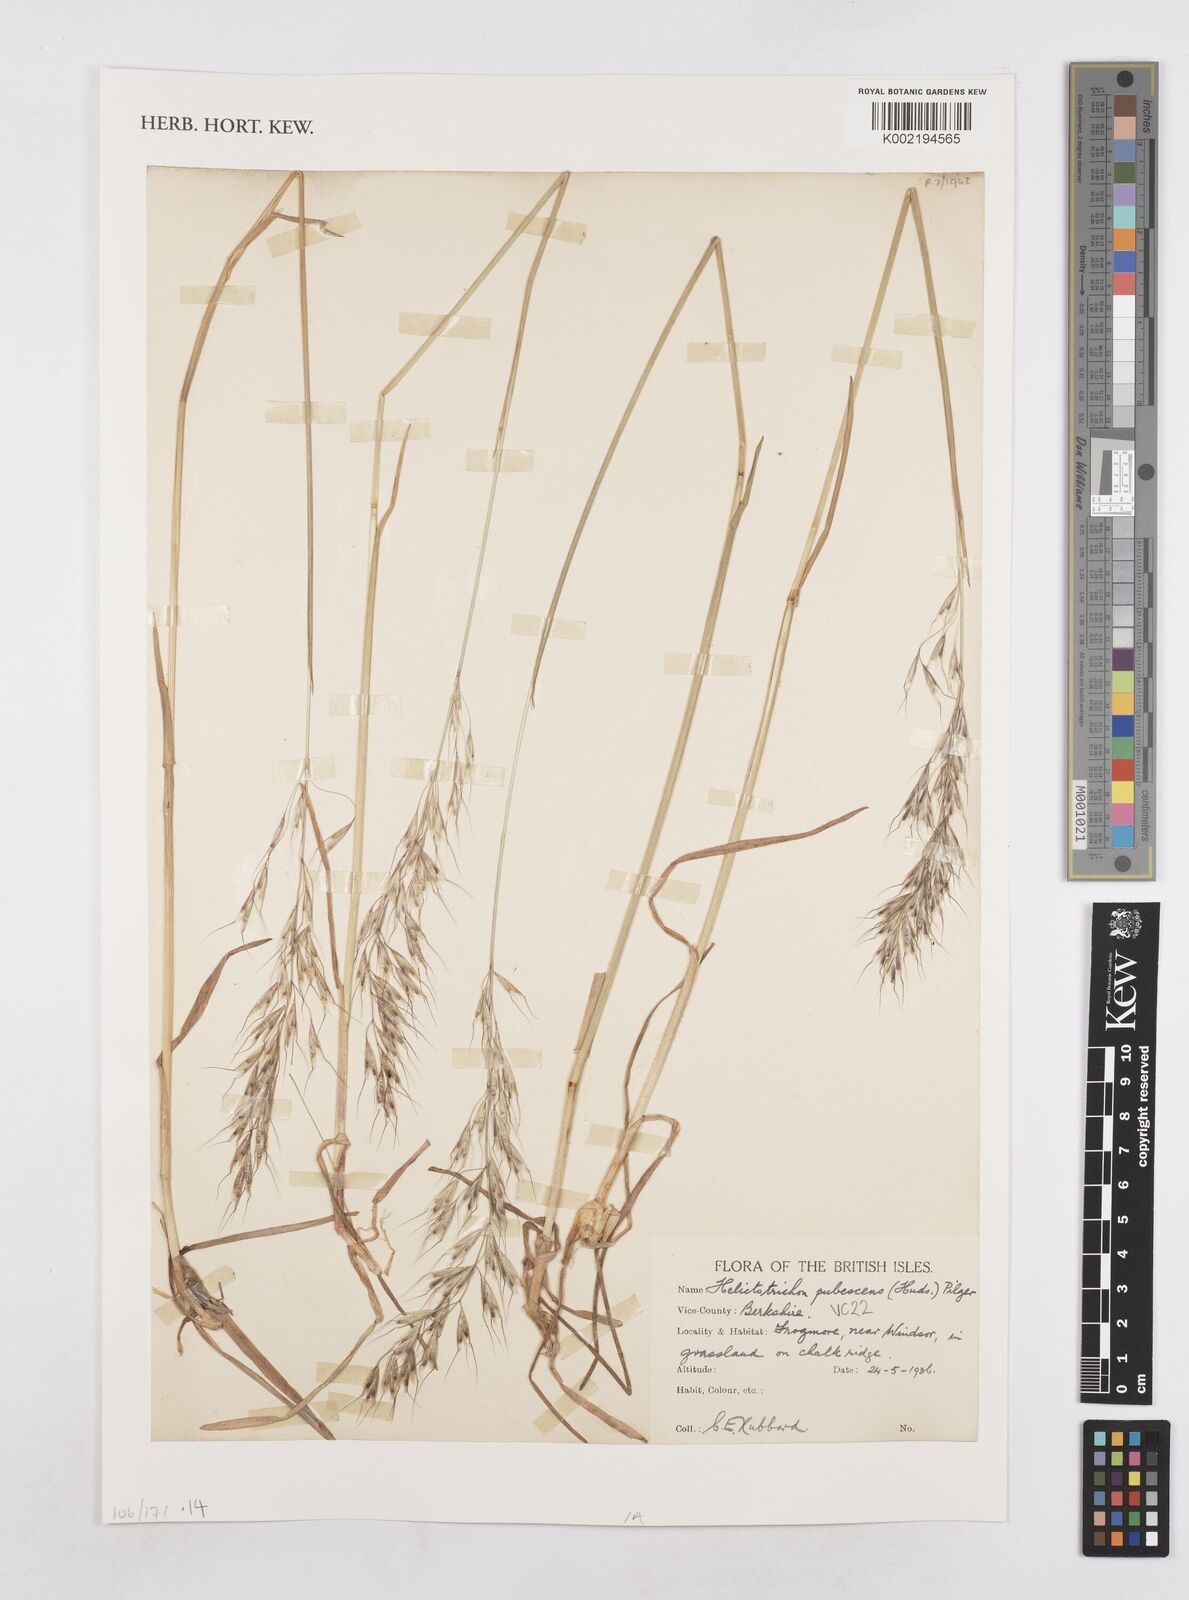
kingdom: Plantae
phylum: Tracheophyta
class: Liliopsida
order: Poales
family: Poaceae
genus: Avenula
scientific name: Avenula pubescens
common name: Downy alpine oatgrass
